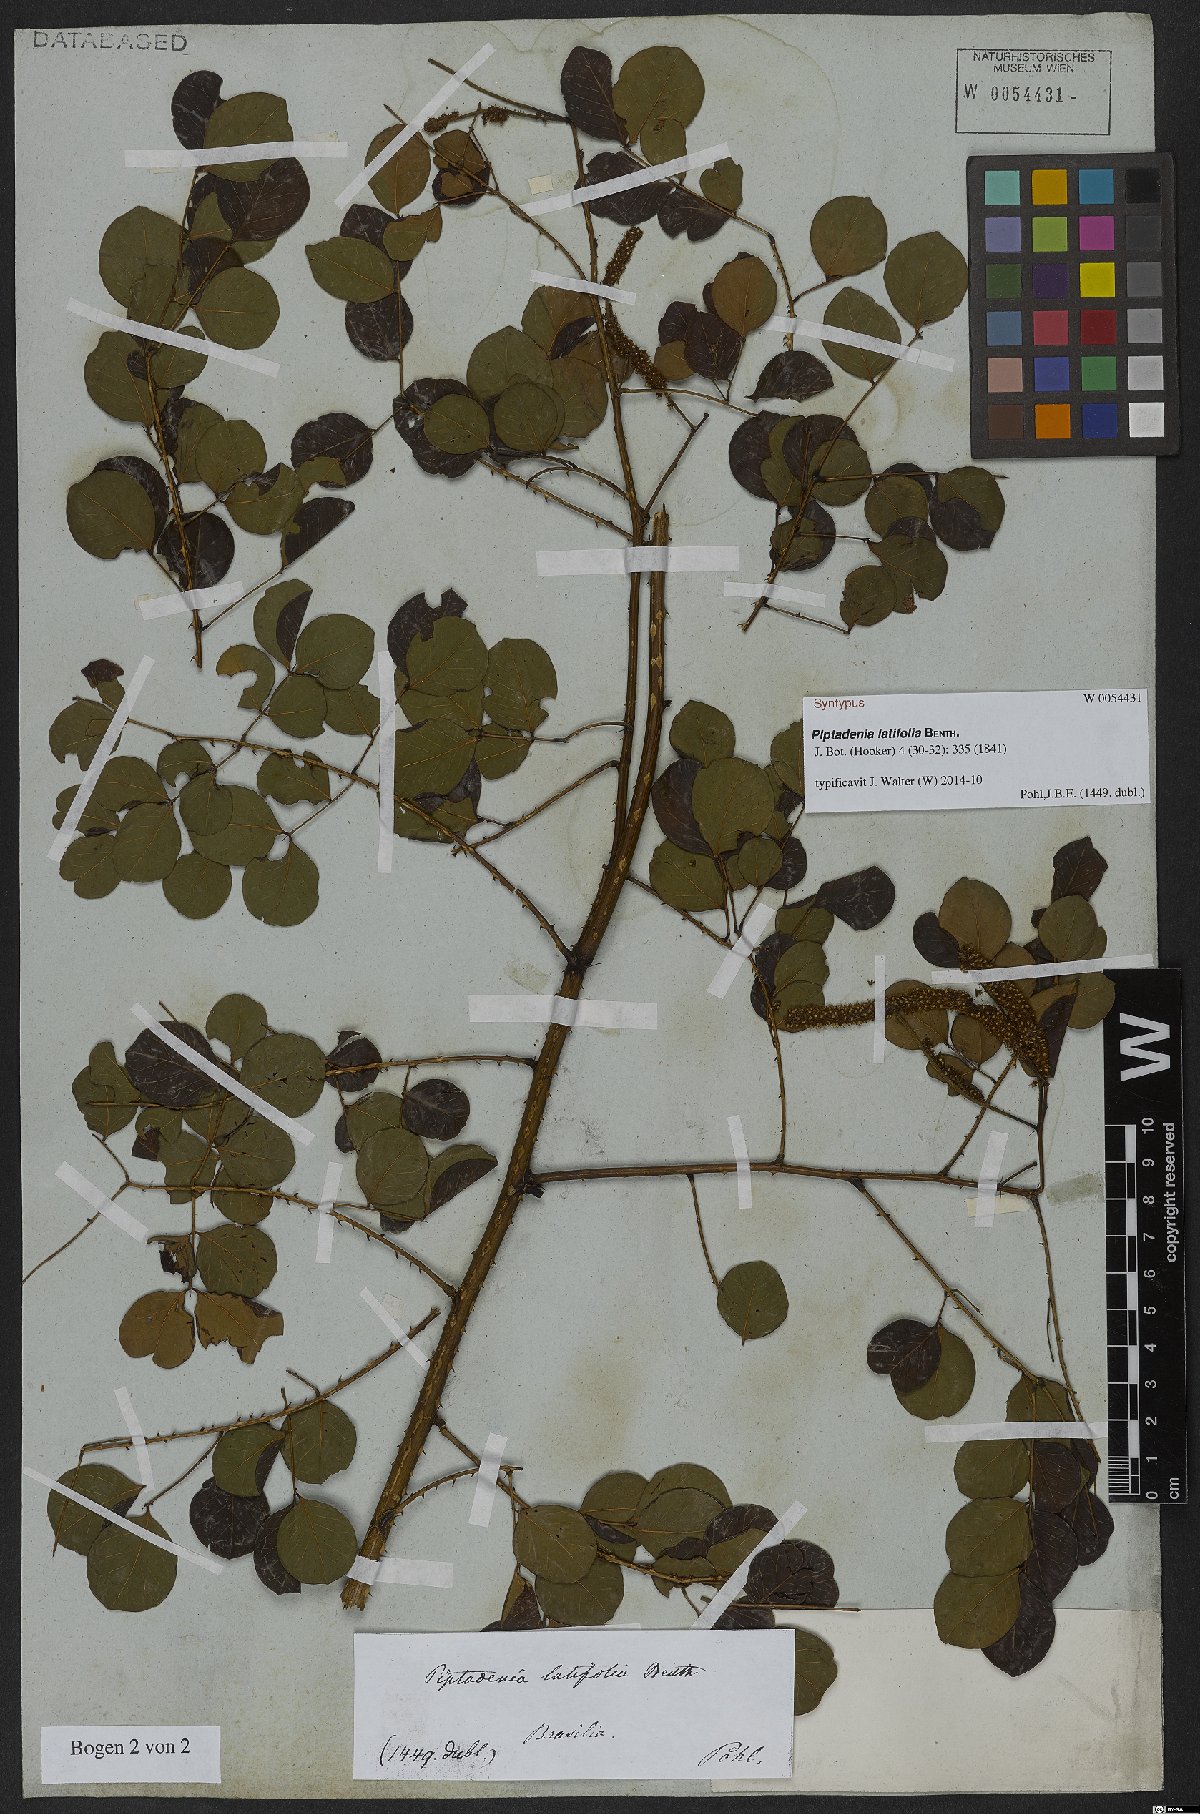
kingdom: Plantae
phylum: Tracheophyta
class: Magnoliopsida
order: Fabales
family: Fabaceae
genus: Piptadenia
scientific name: Piptadenia adiantoides
